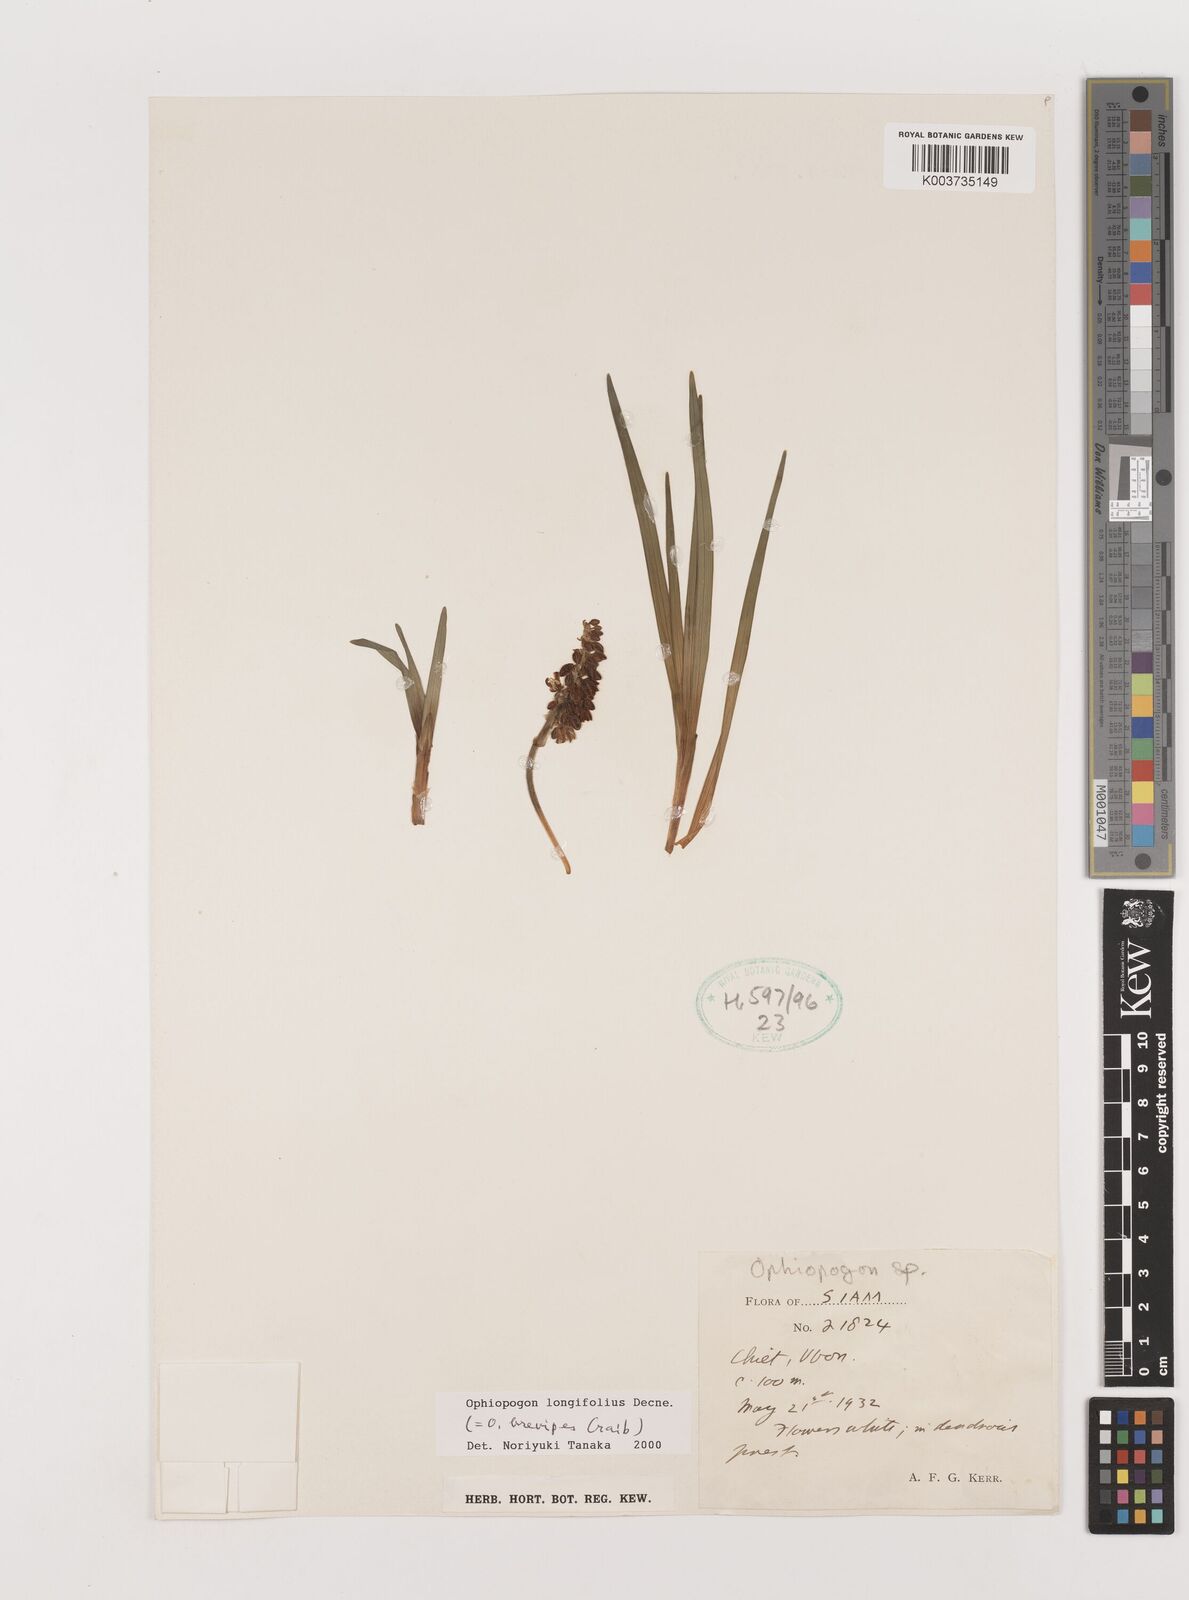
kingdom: Plantae
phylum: Tracheophyta
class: Liliopsida
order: Asparagales
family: Asparagaceae
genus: Ophiopogon
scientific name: Ophiopogon longifolius
